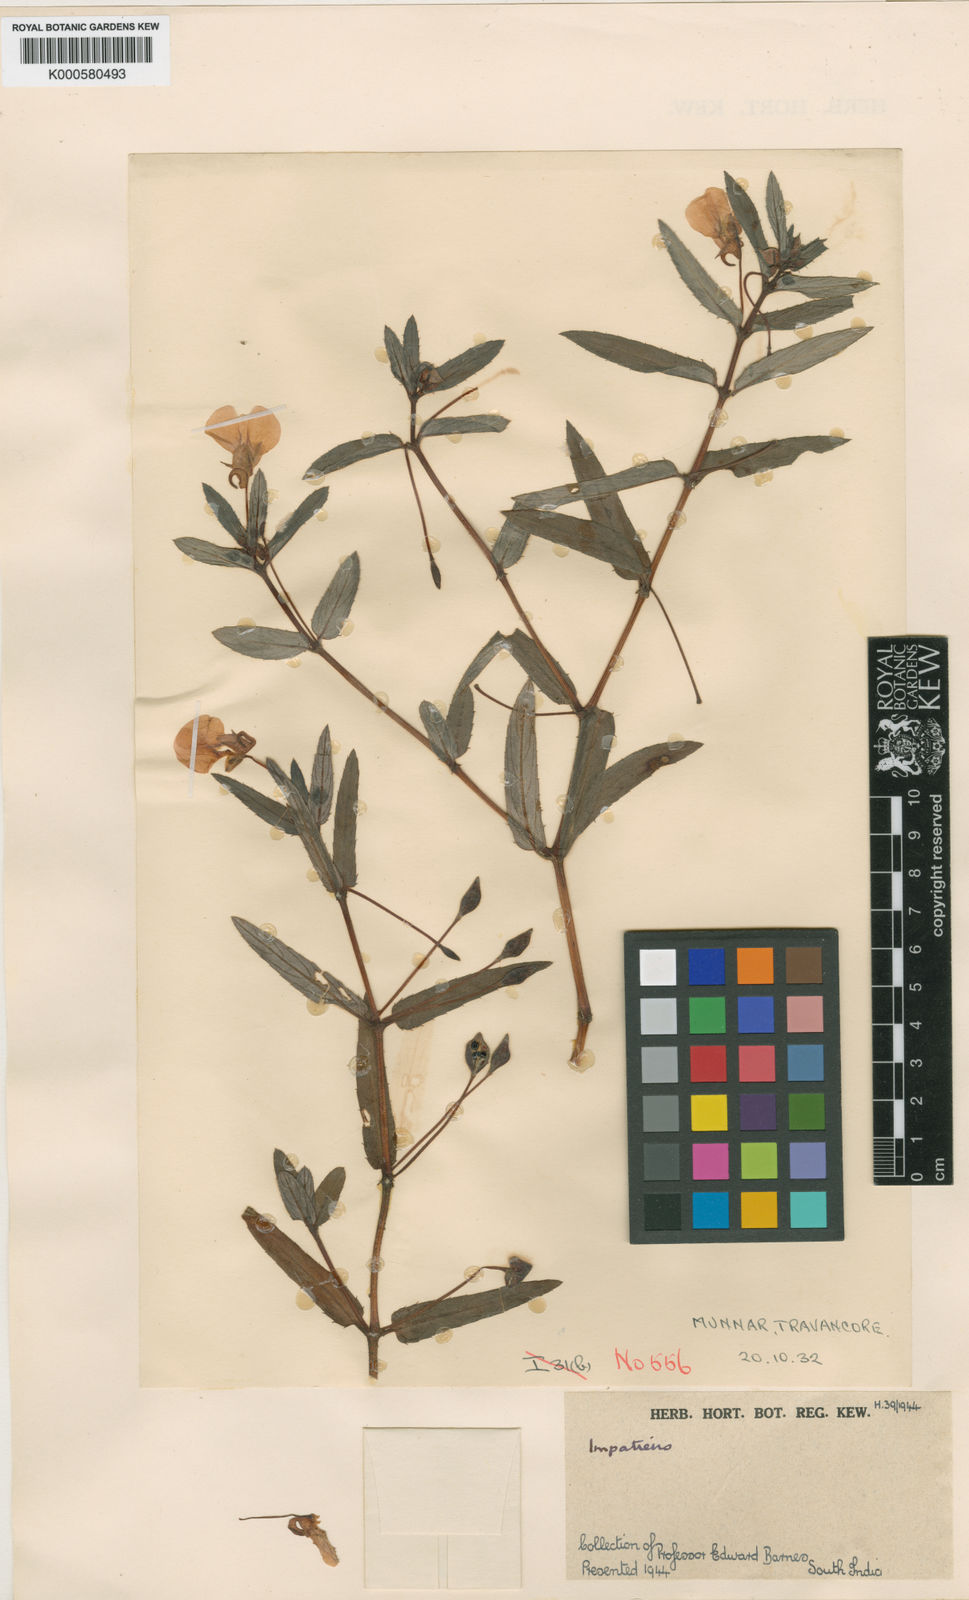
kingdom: Plantae
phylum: Tracheophyta
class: Magnoliopsida
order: Ericales
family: Balsaminaceae
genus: Impatiens
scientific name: Impatiens chinensis
